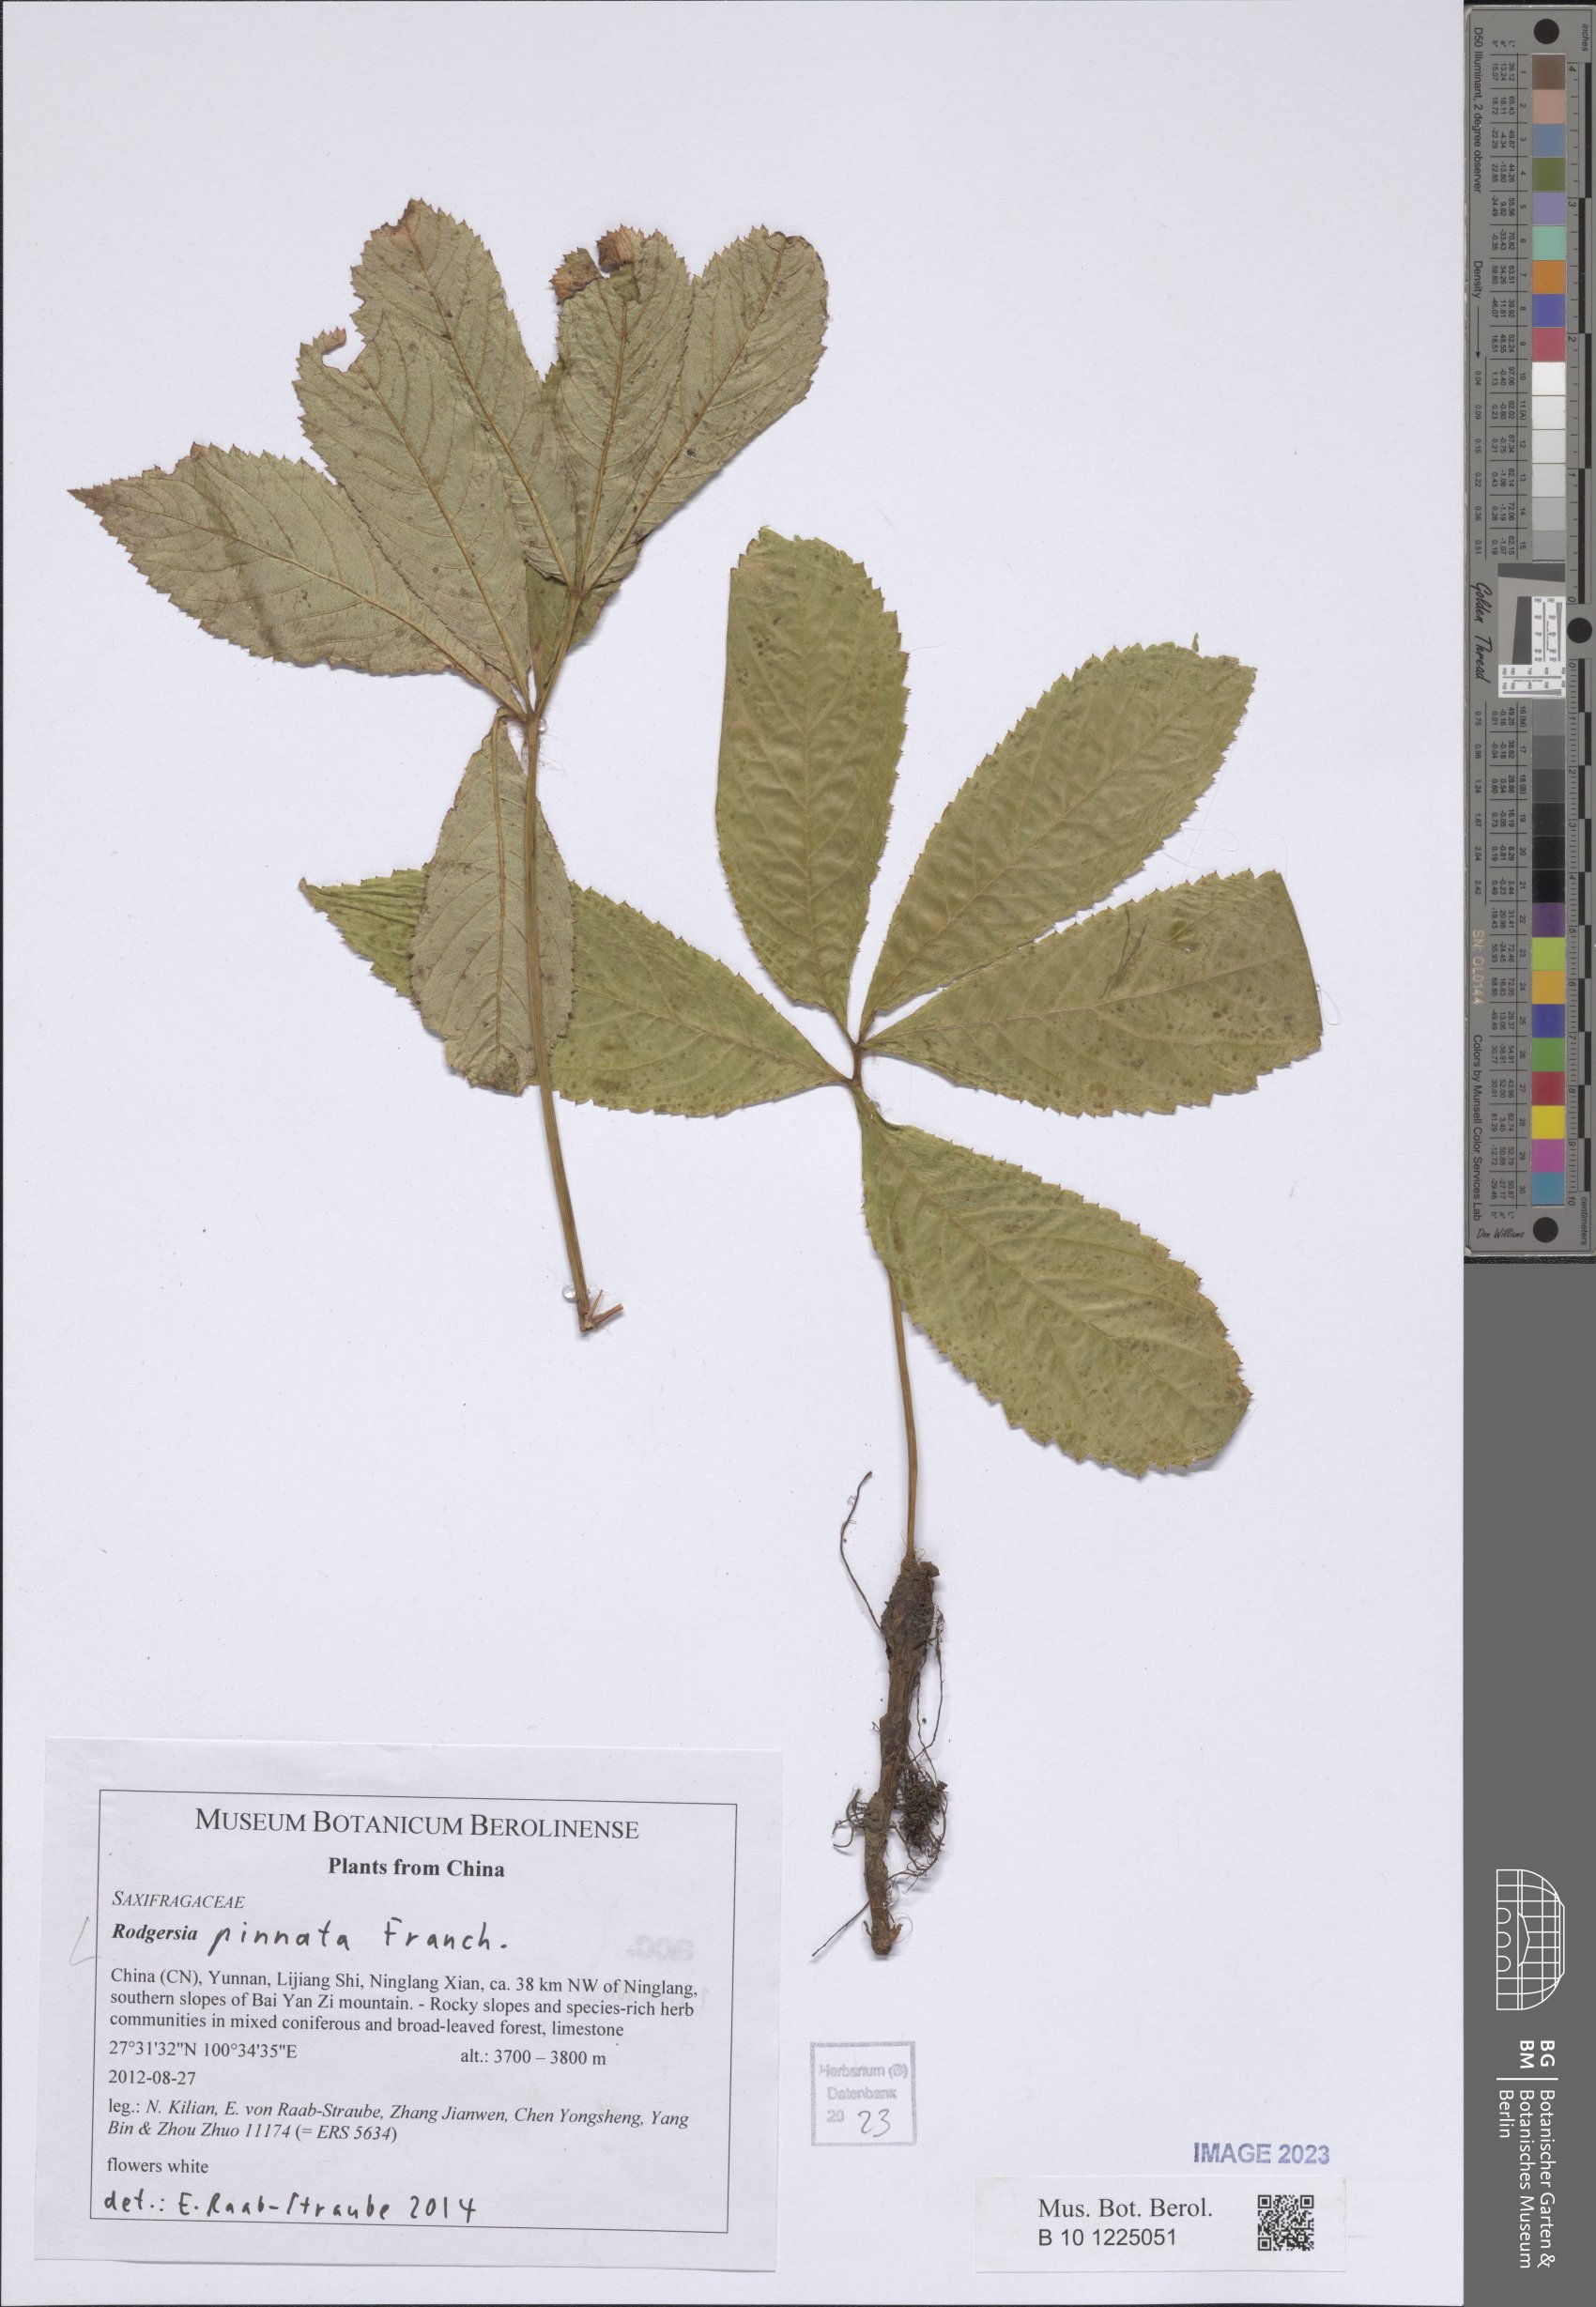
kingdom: Plantae
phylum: Tracheophyta
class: Magnoliopsida
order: Saxifragales
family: Saxifragaceae
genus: Rodgersia
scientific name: Rodgersia pinnata
